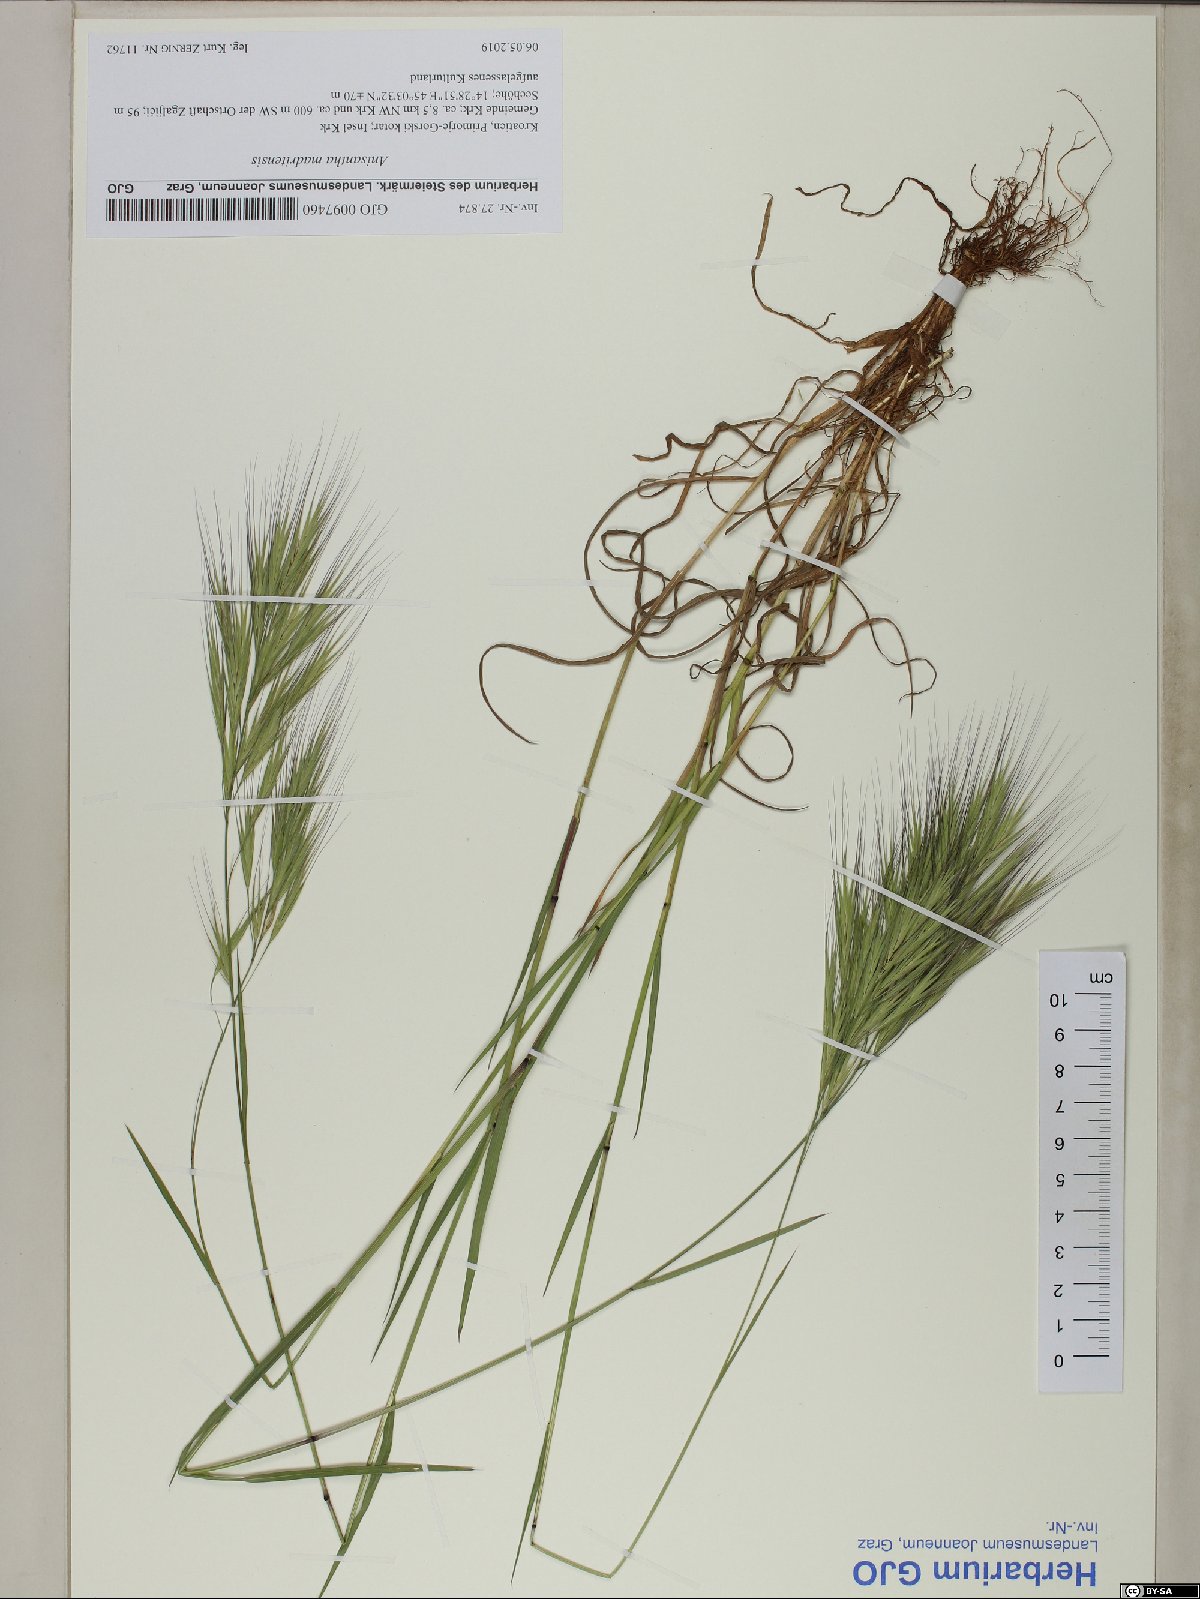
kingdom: Plantae
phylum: Tracheophyta
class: Liliopsida
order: Poales
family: Poaceae
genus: Bromus
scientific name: Bromus madritensis
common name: Compact brome
